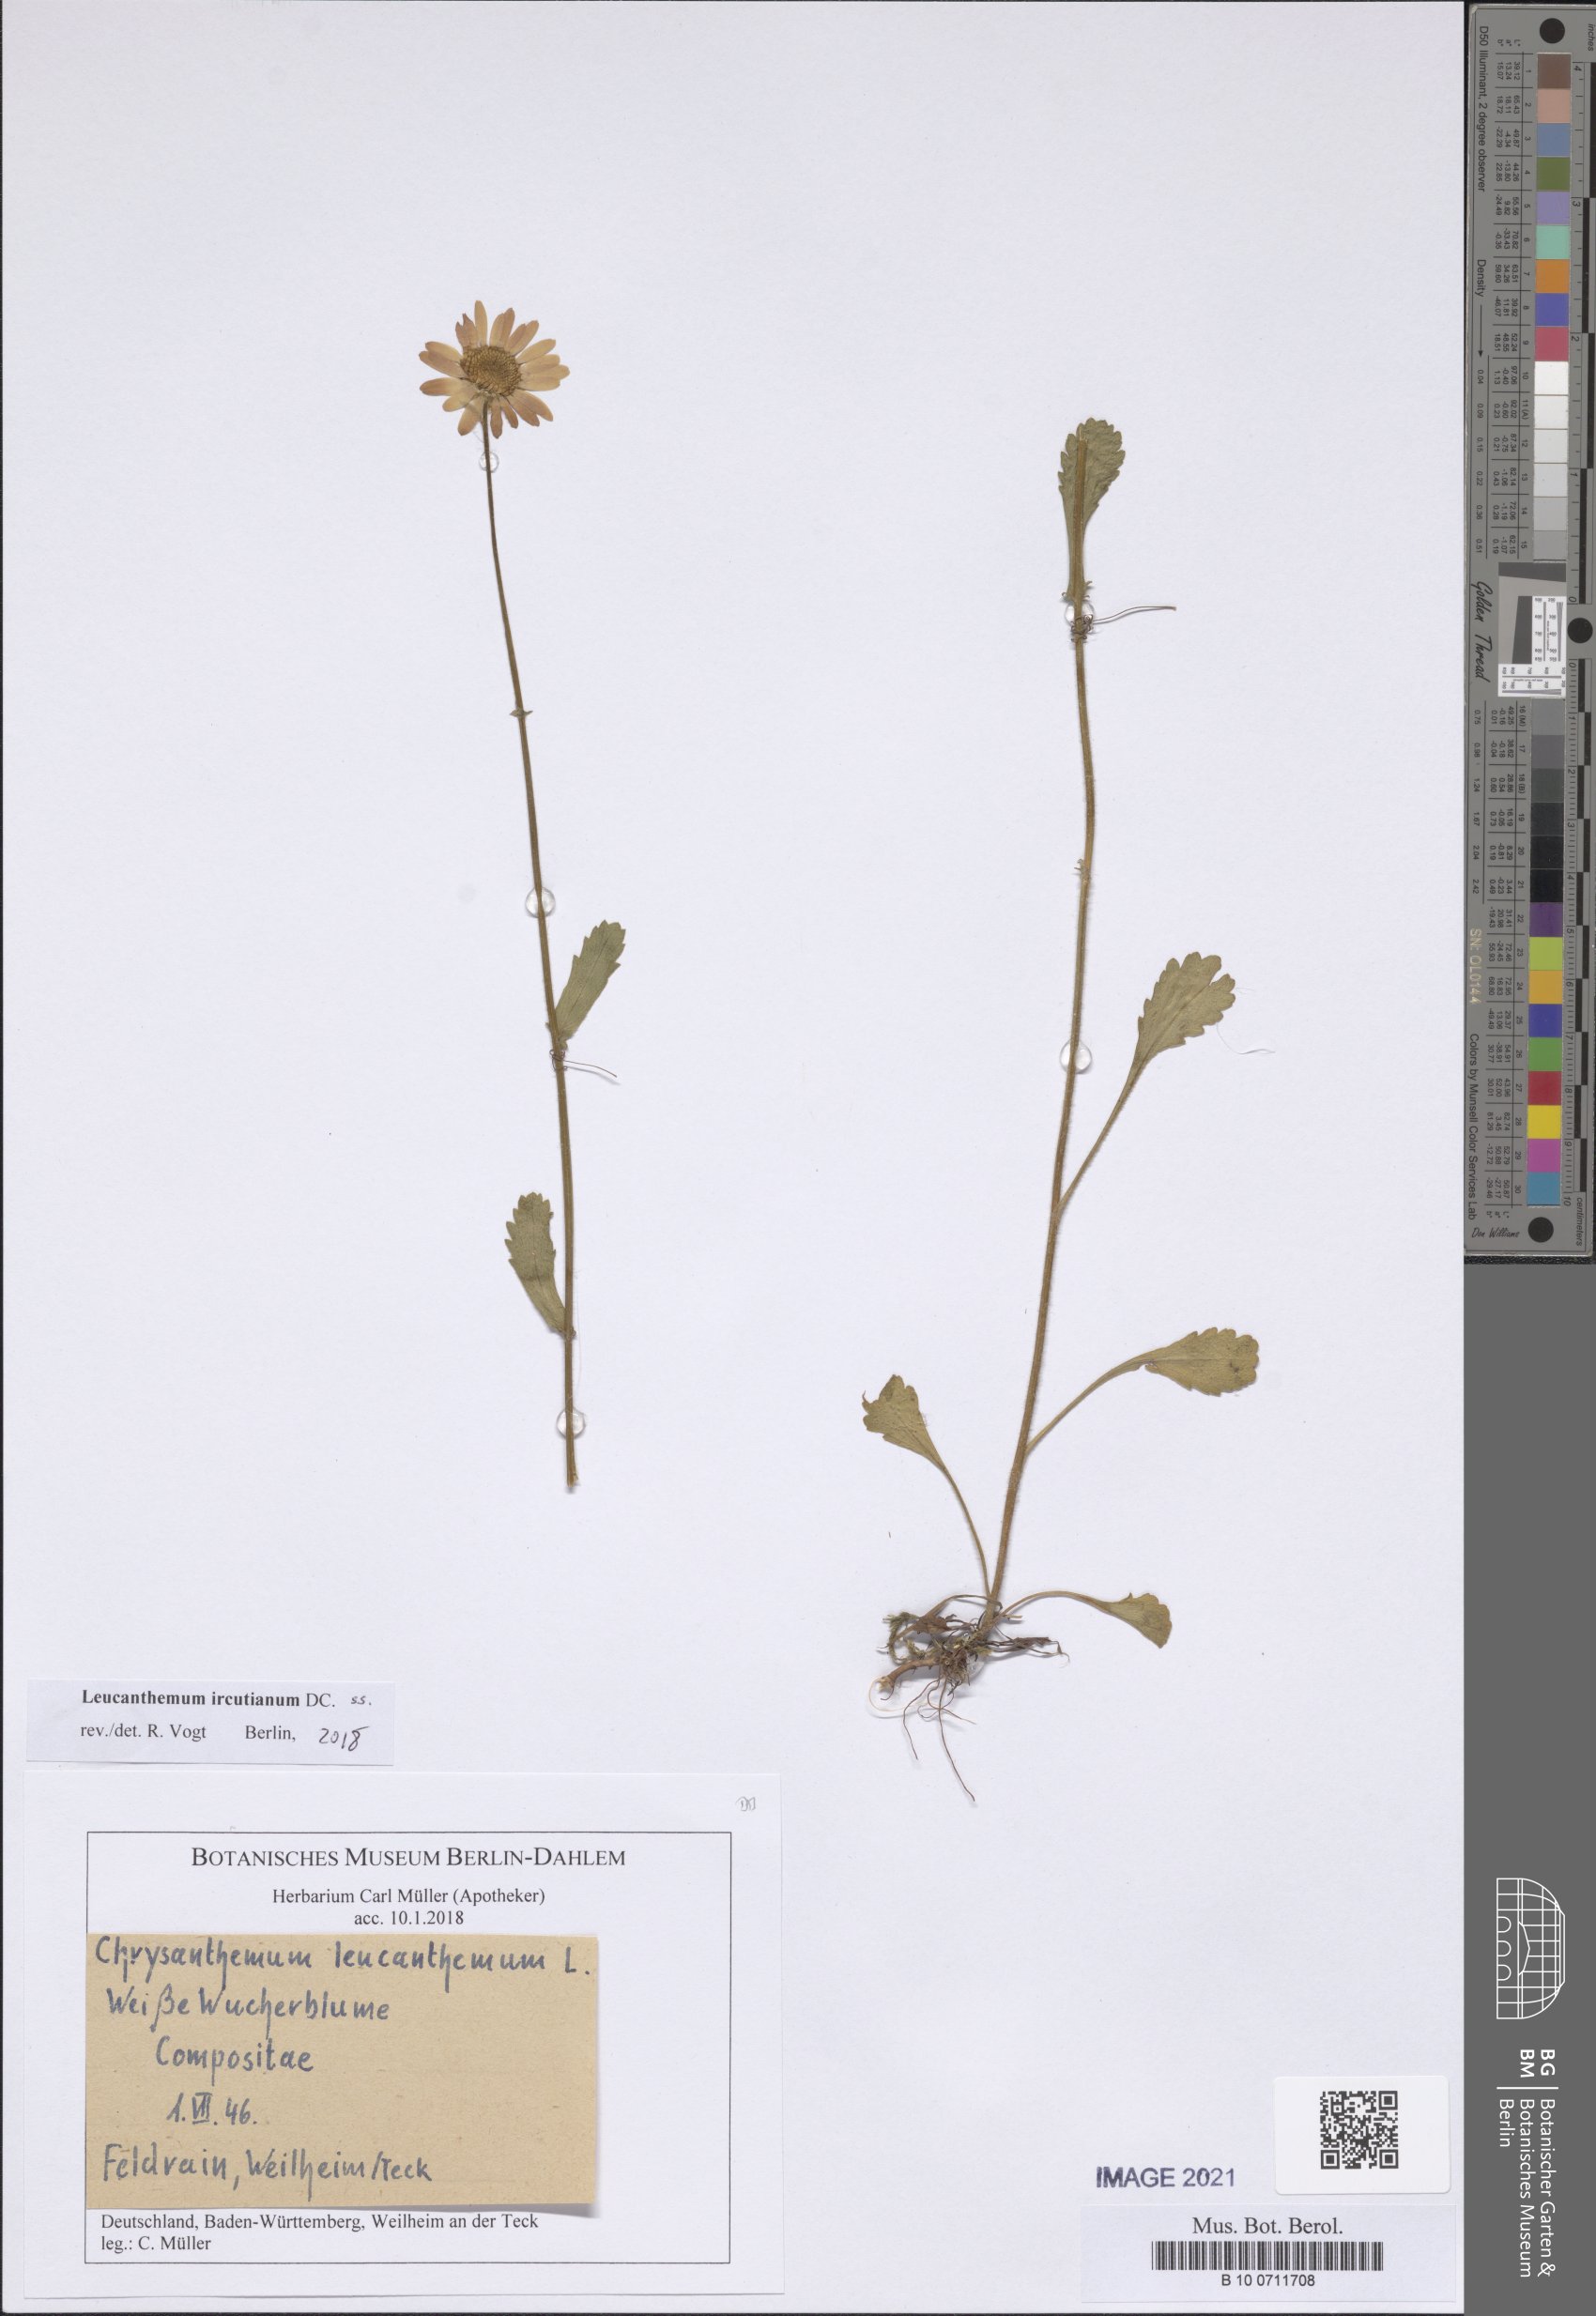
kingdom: Plantae
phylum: Tracheophyta
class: Magnoliopsida
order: Asterales
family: Asteraceae
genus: Leucanthemum
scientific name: Leucanthemum ircutianum
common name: Daisy
